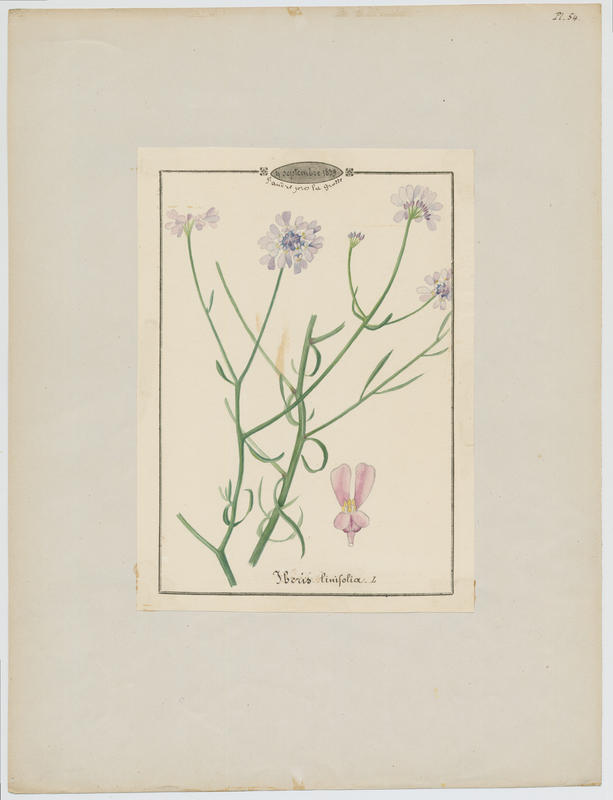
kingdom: Plantae
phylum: Tracheophyta
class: Magnoliopsida
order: Brassicales
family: Brassicaceae
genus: Iberis
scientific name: Iberis linifolia
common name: Candytuft
